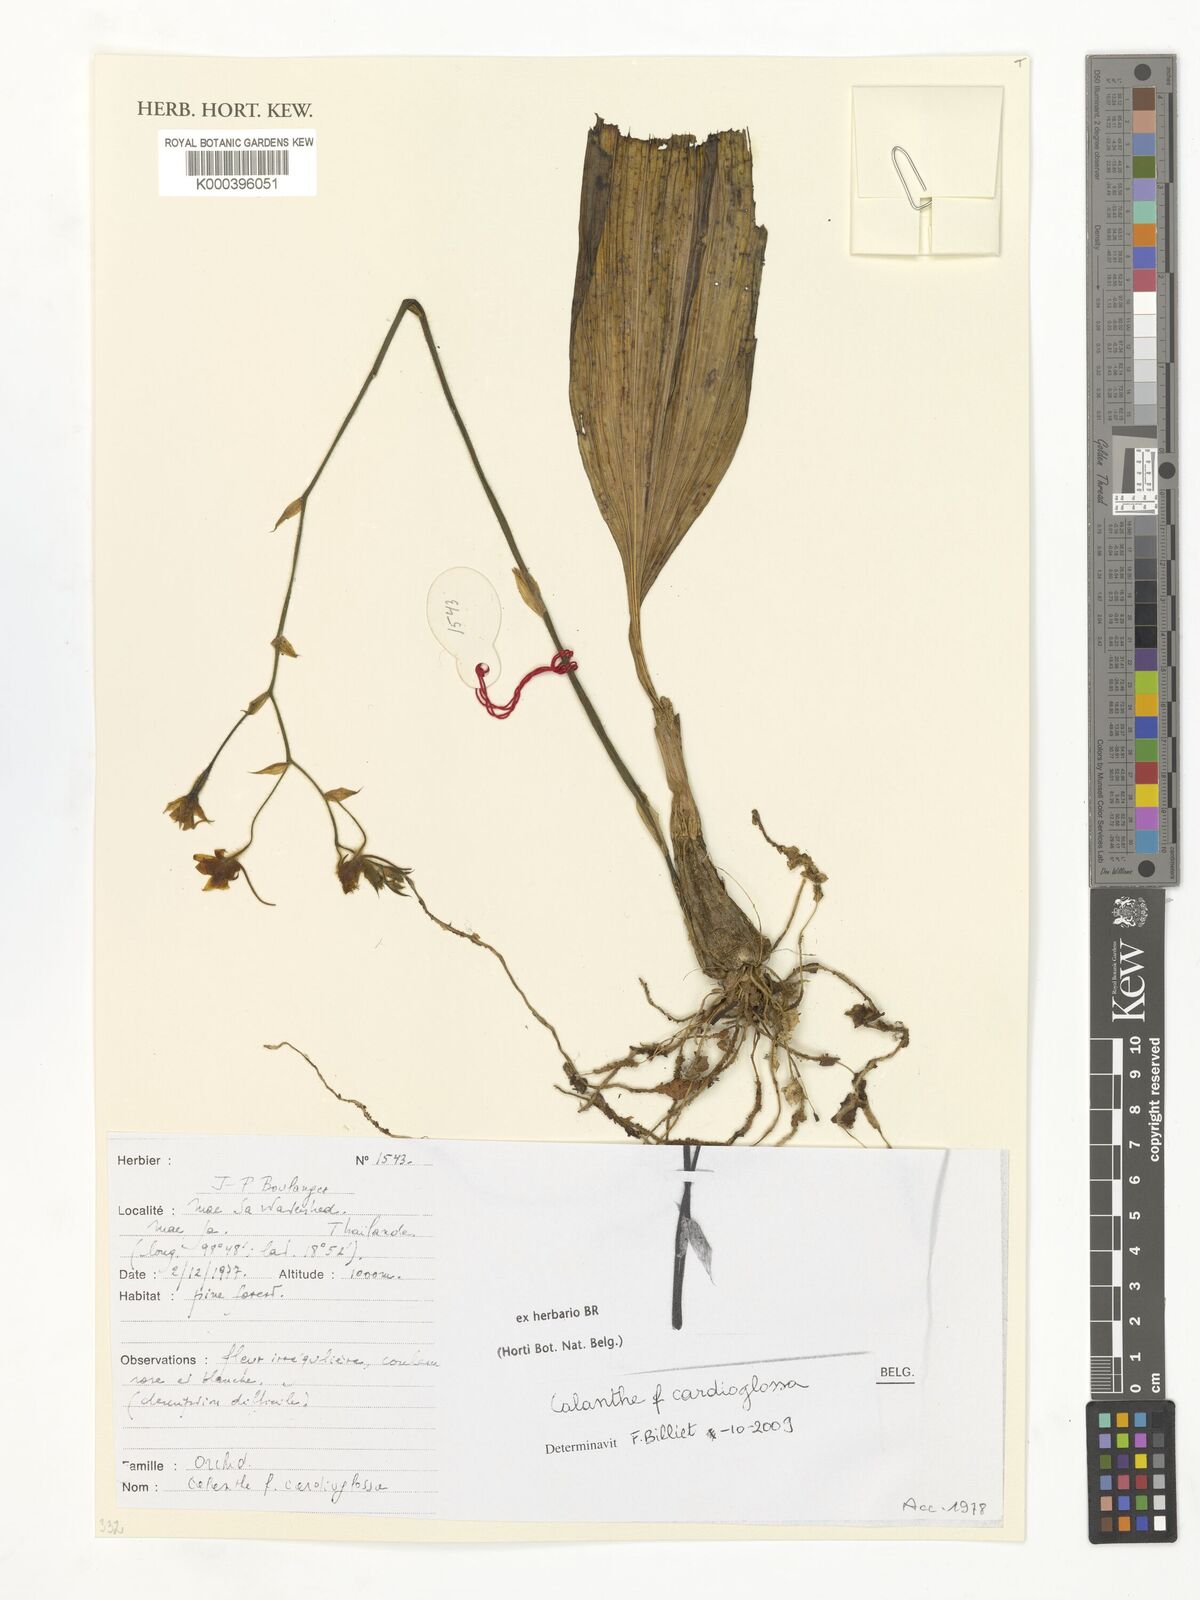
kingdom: Plantae
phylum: Tracheophyta
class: Liliopsida
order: Asparagales
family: Orchidaceae
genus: Calanthe
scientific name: Calanthe cardioglossa
